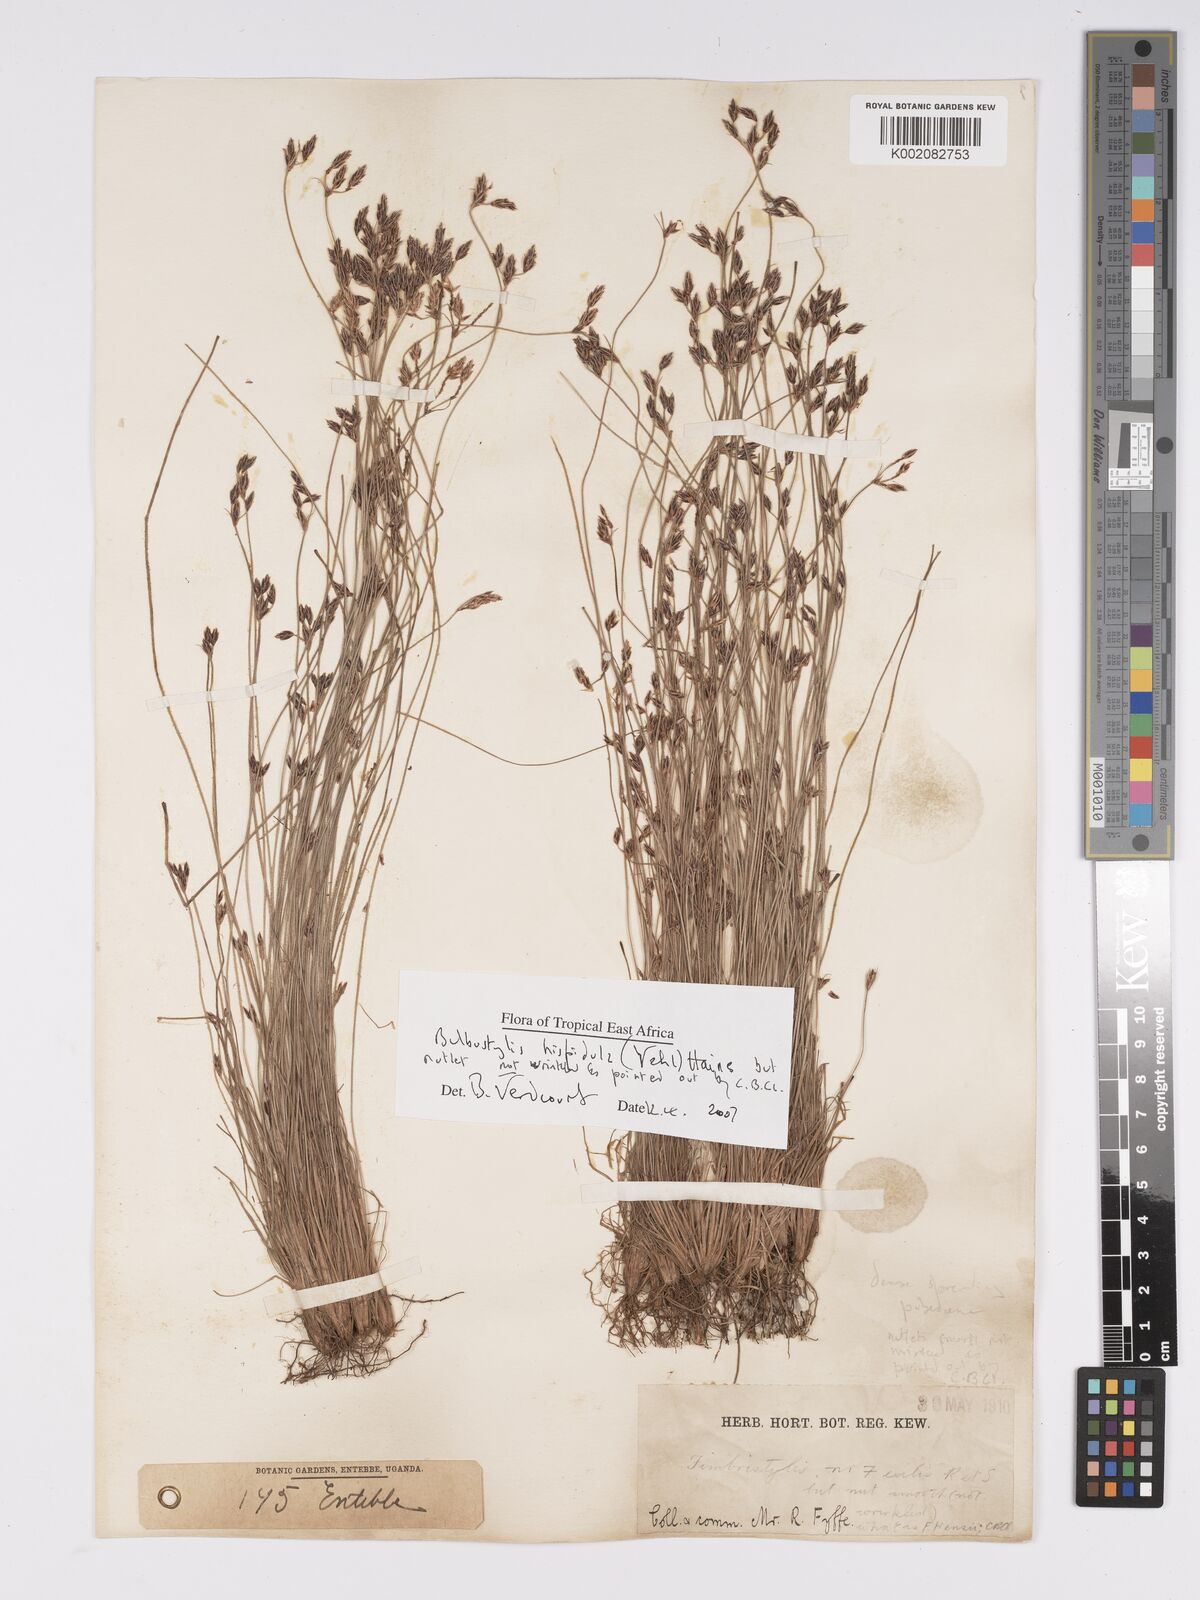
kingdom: Plantae
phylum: Tracheophyta
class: Liliopsida
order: Poales
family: Cyperaceae
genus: Bulbostylis
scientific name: Bulbostylis hispidula
